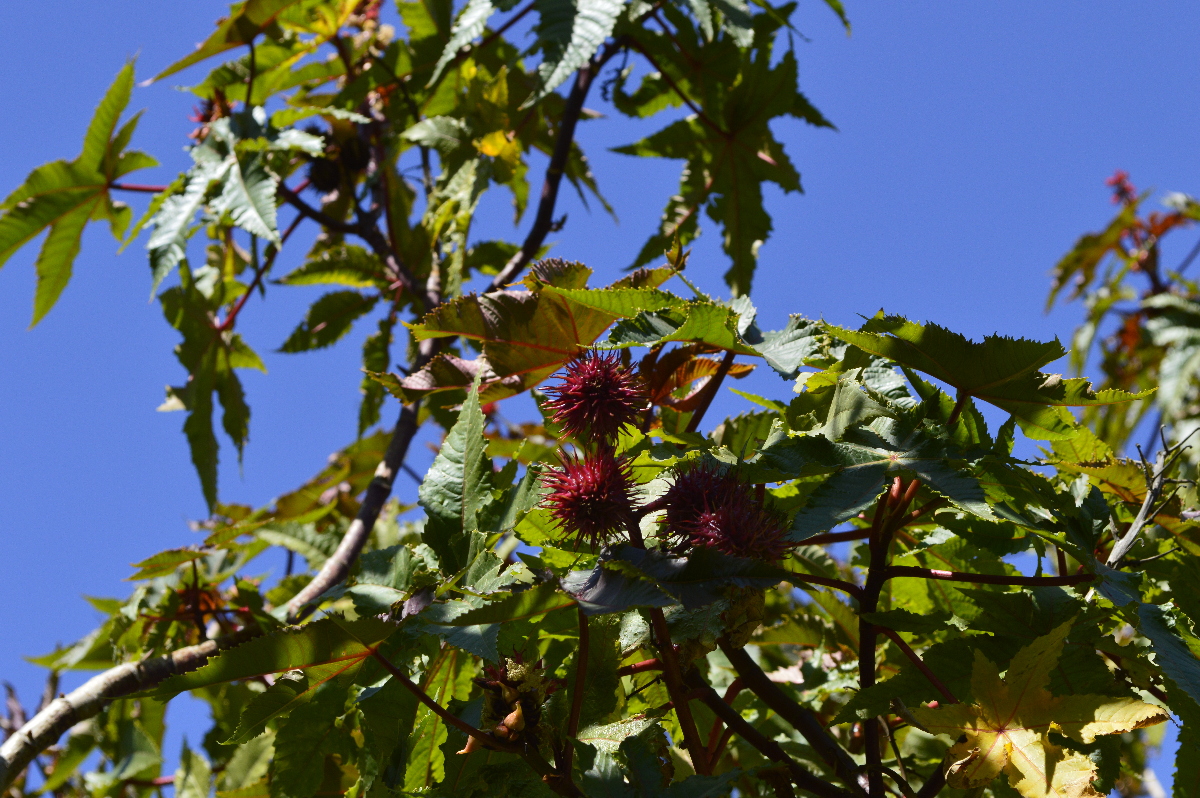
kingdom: Plantae
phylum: Tracheophyta
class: Magnoliopsida
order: Malpighiales
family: Euphorbiaceae
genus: Ricinus
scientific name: Ricinus communis
